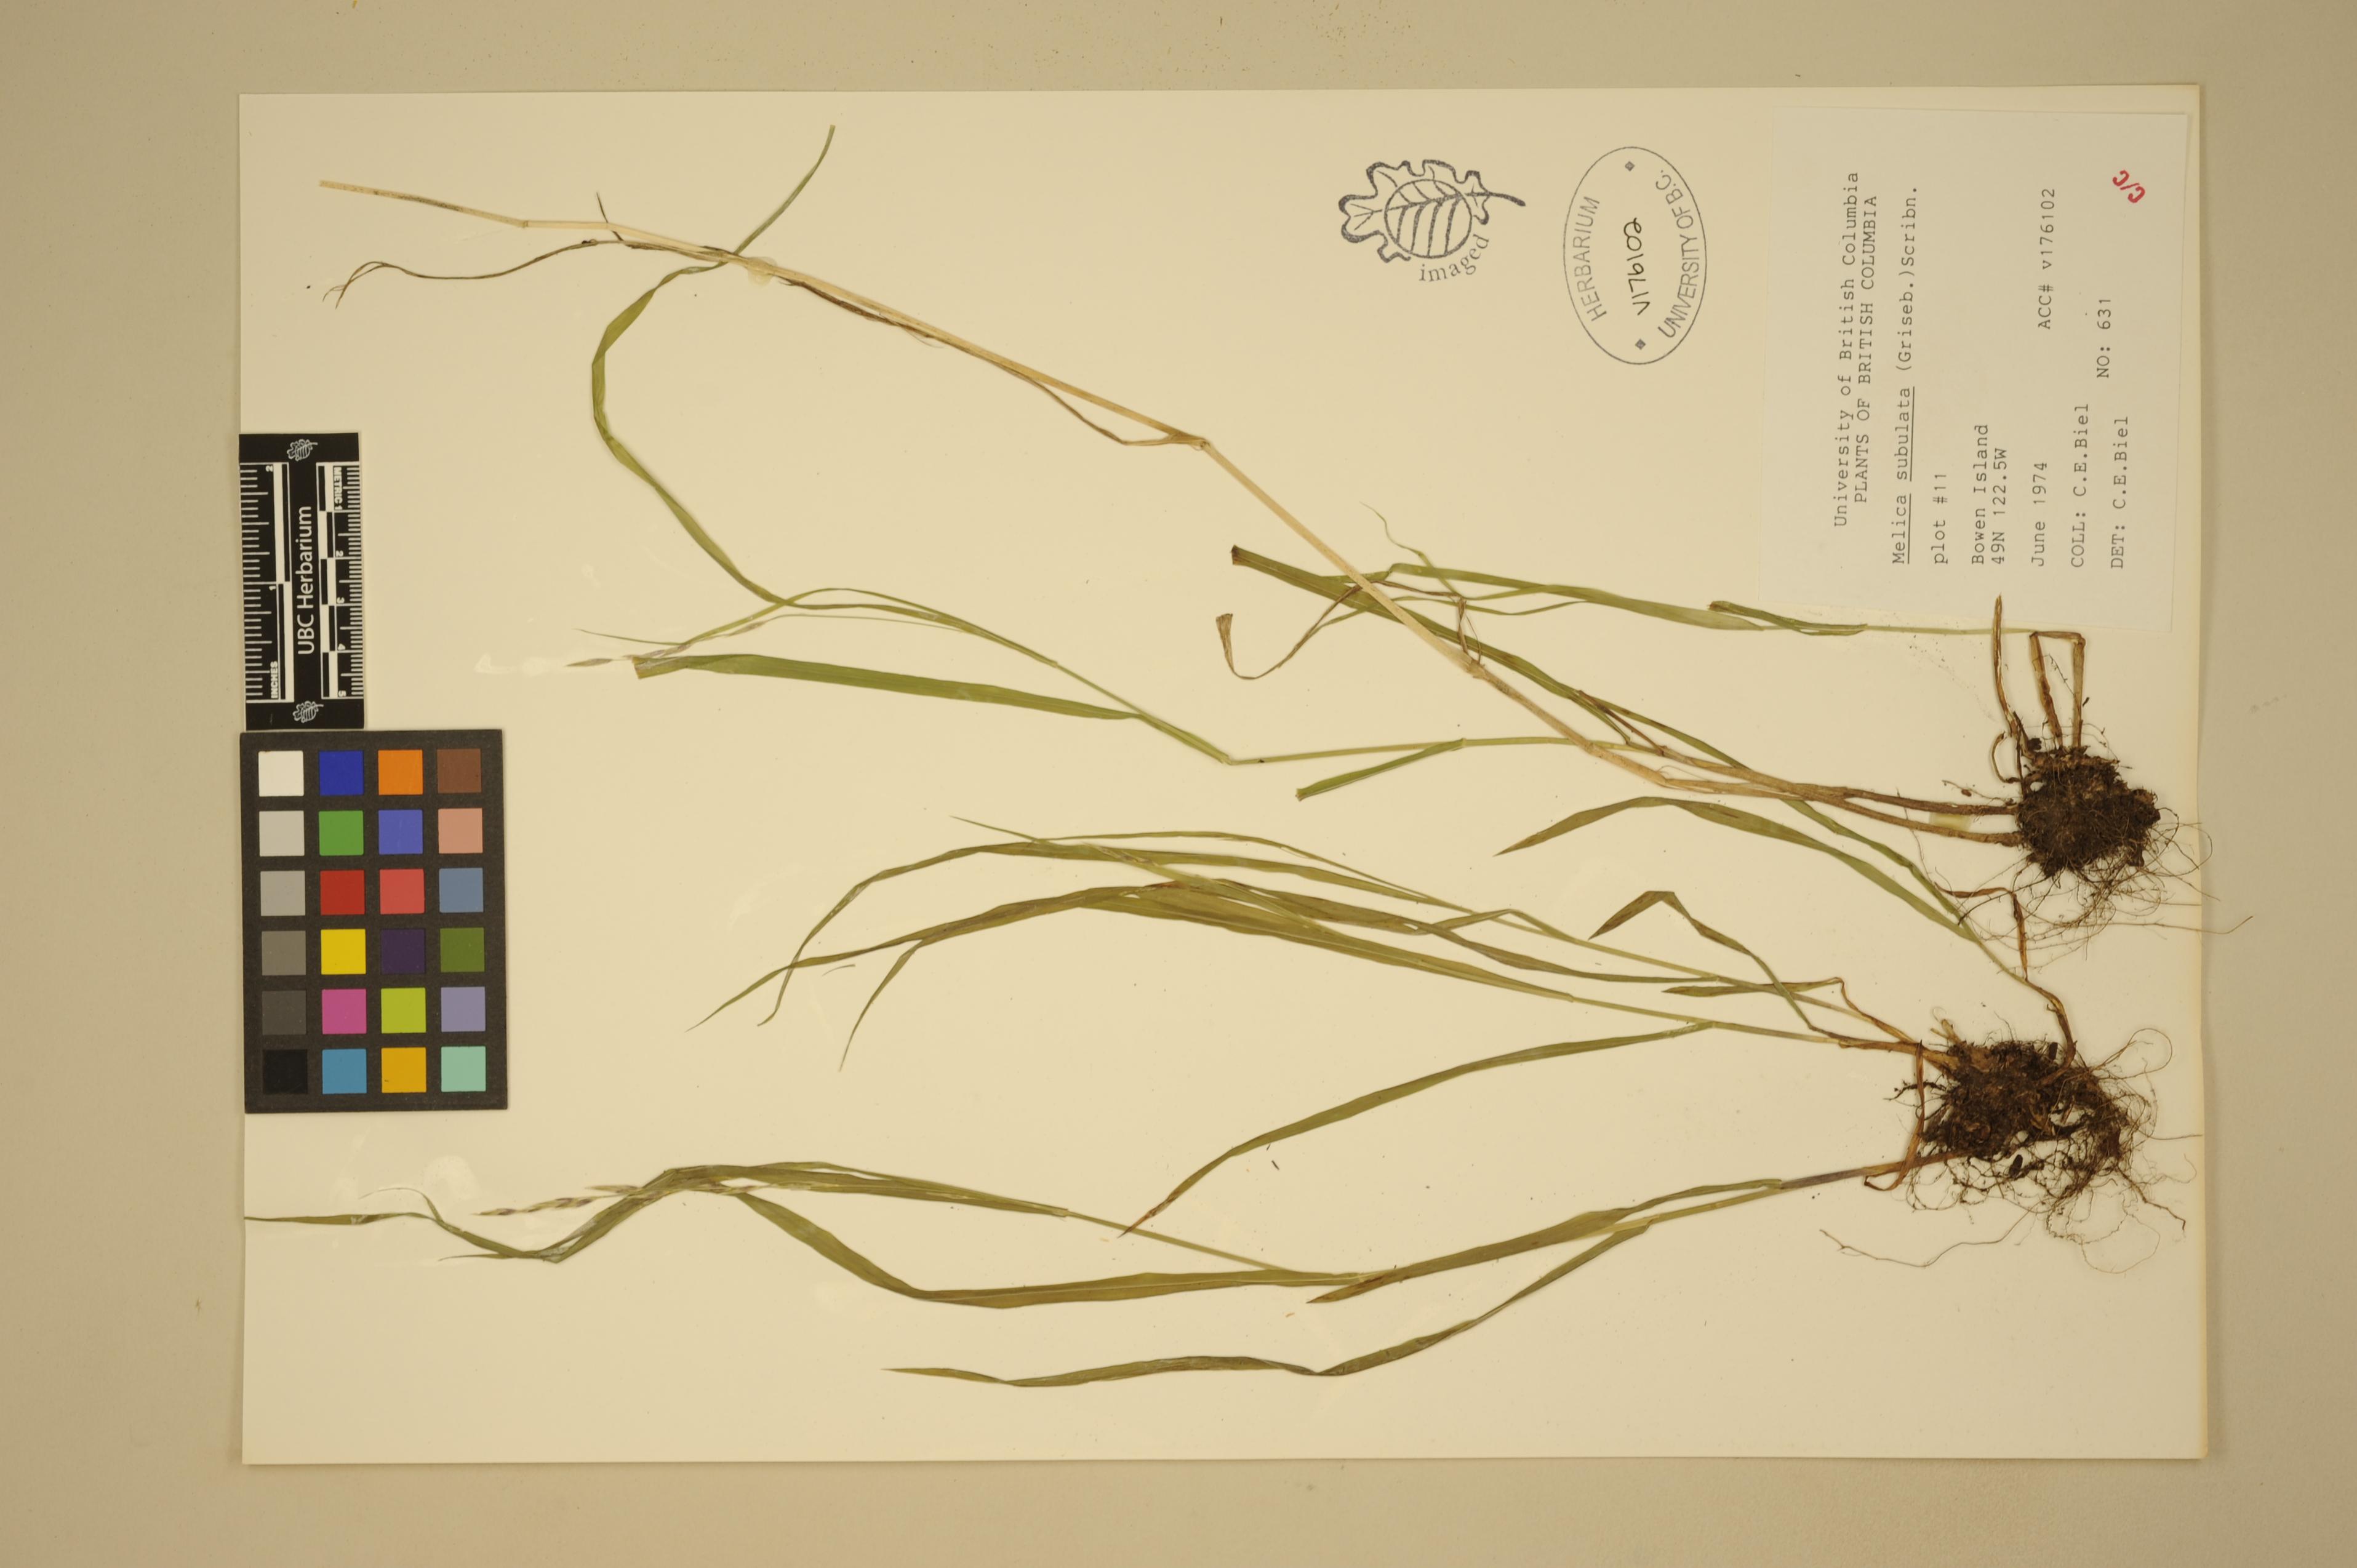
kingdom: Plantae
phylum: Tracheophyta
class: Liliopsida
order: Poales
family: Poaceae
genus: Melica
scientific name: Melica subulata
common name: Tapered oniongrass
